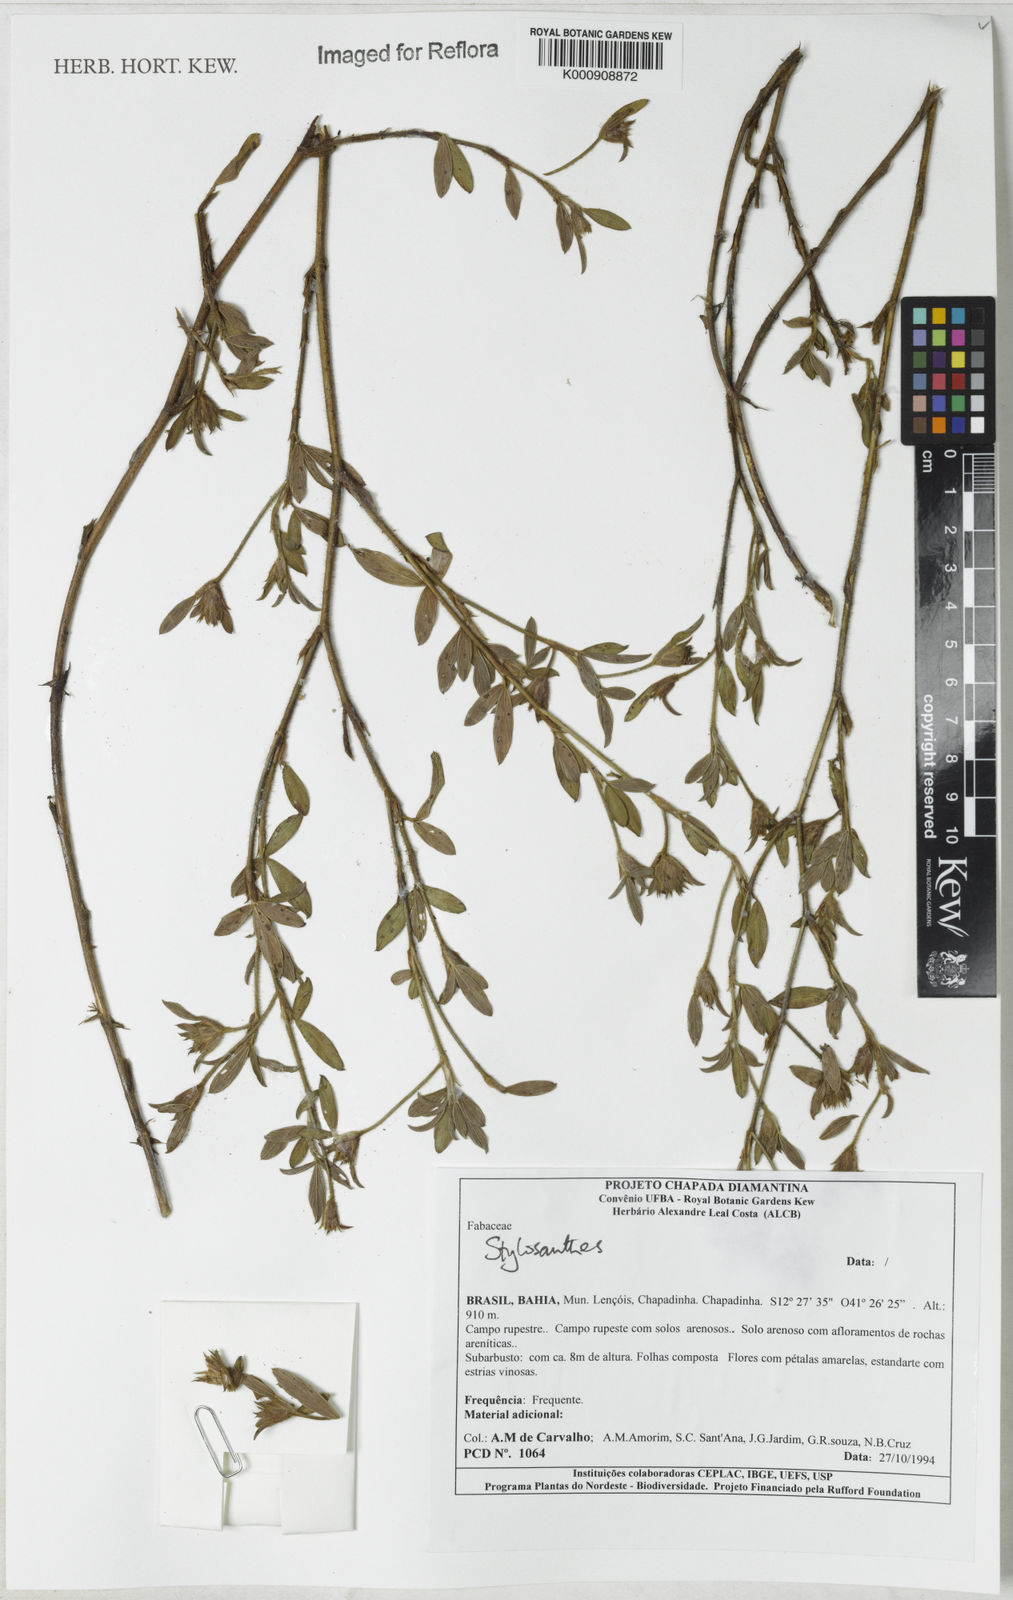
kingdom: Plantae
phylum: Tracheophyta
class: Magnoliopsida
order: Fabales
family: Fabaceae
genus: Stylosanthes
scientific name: Stylosanthes
